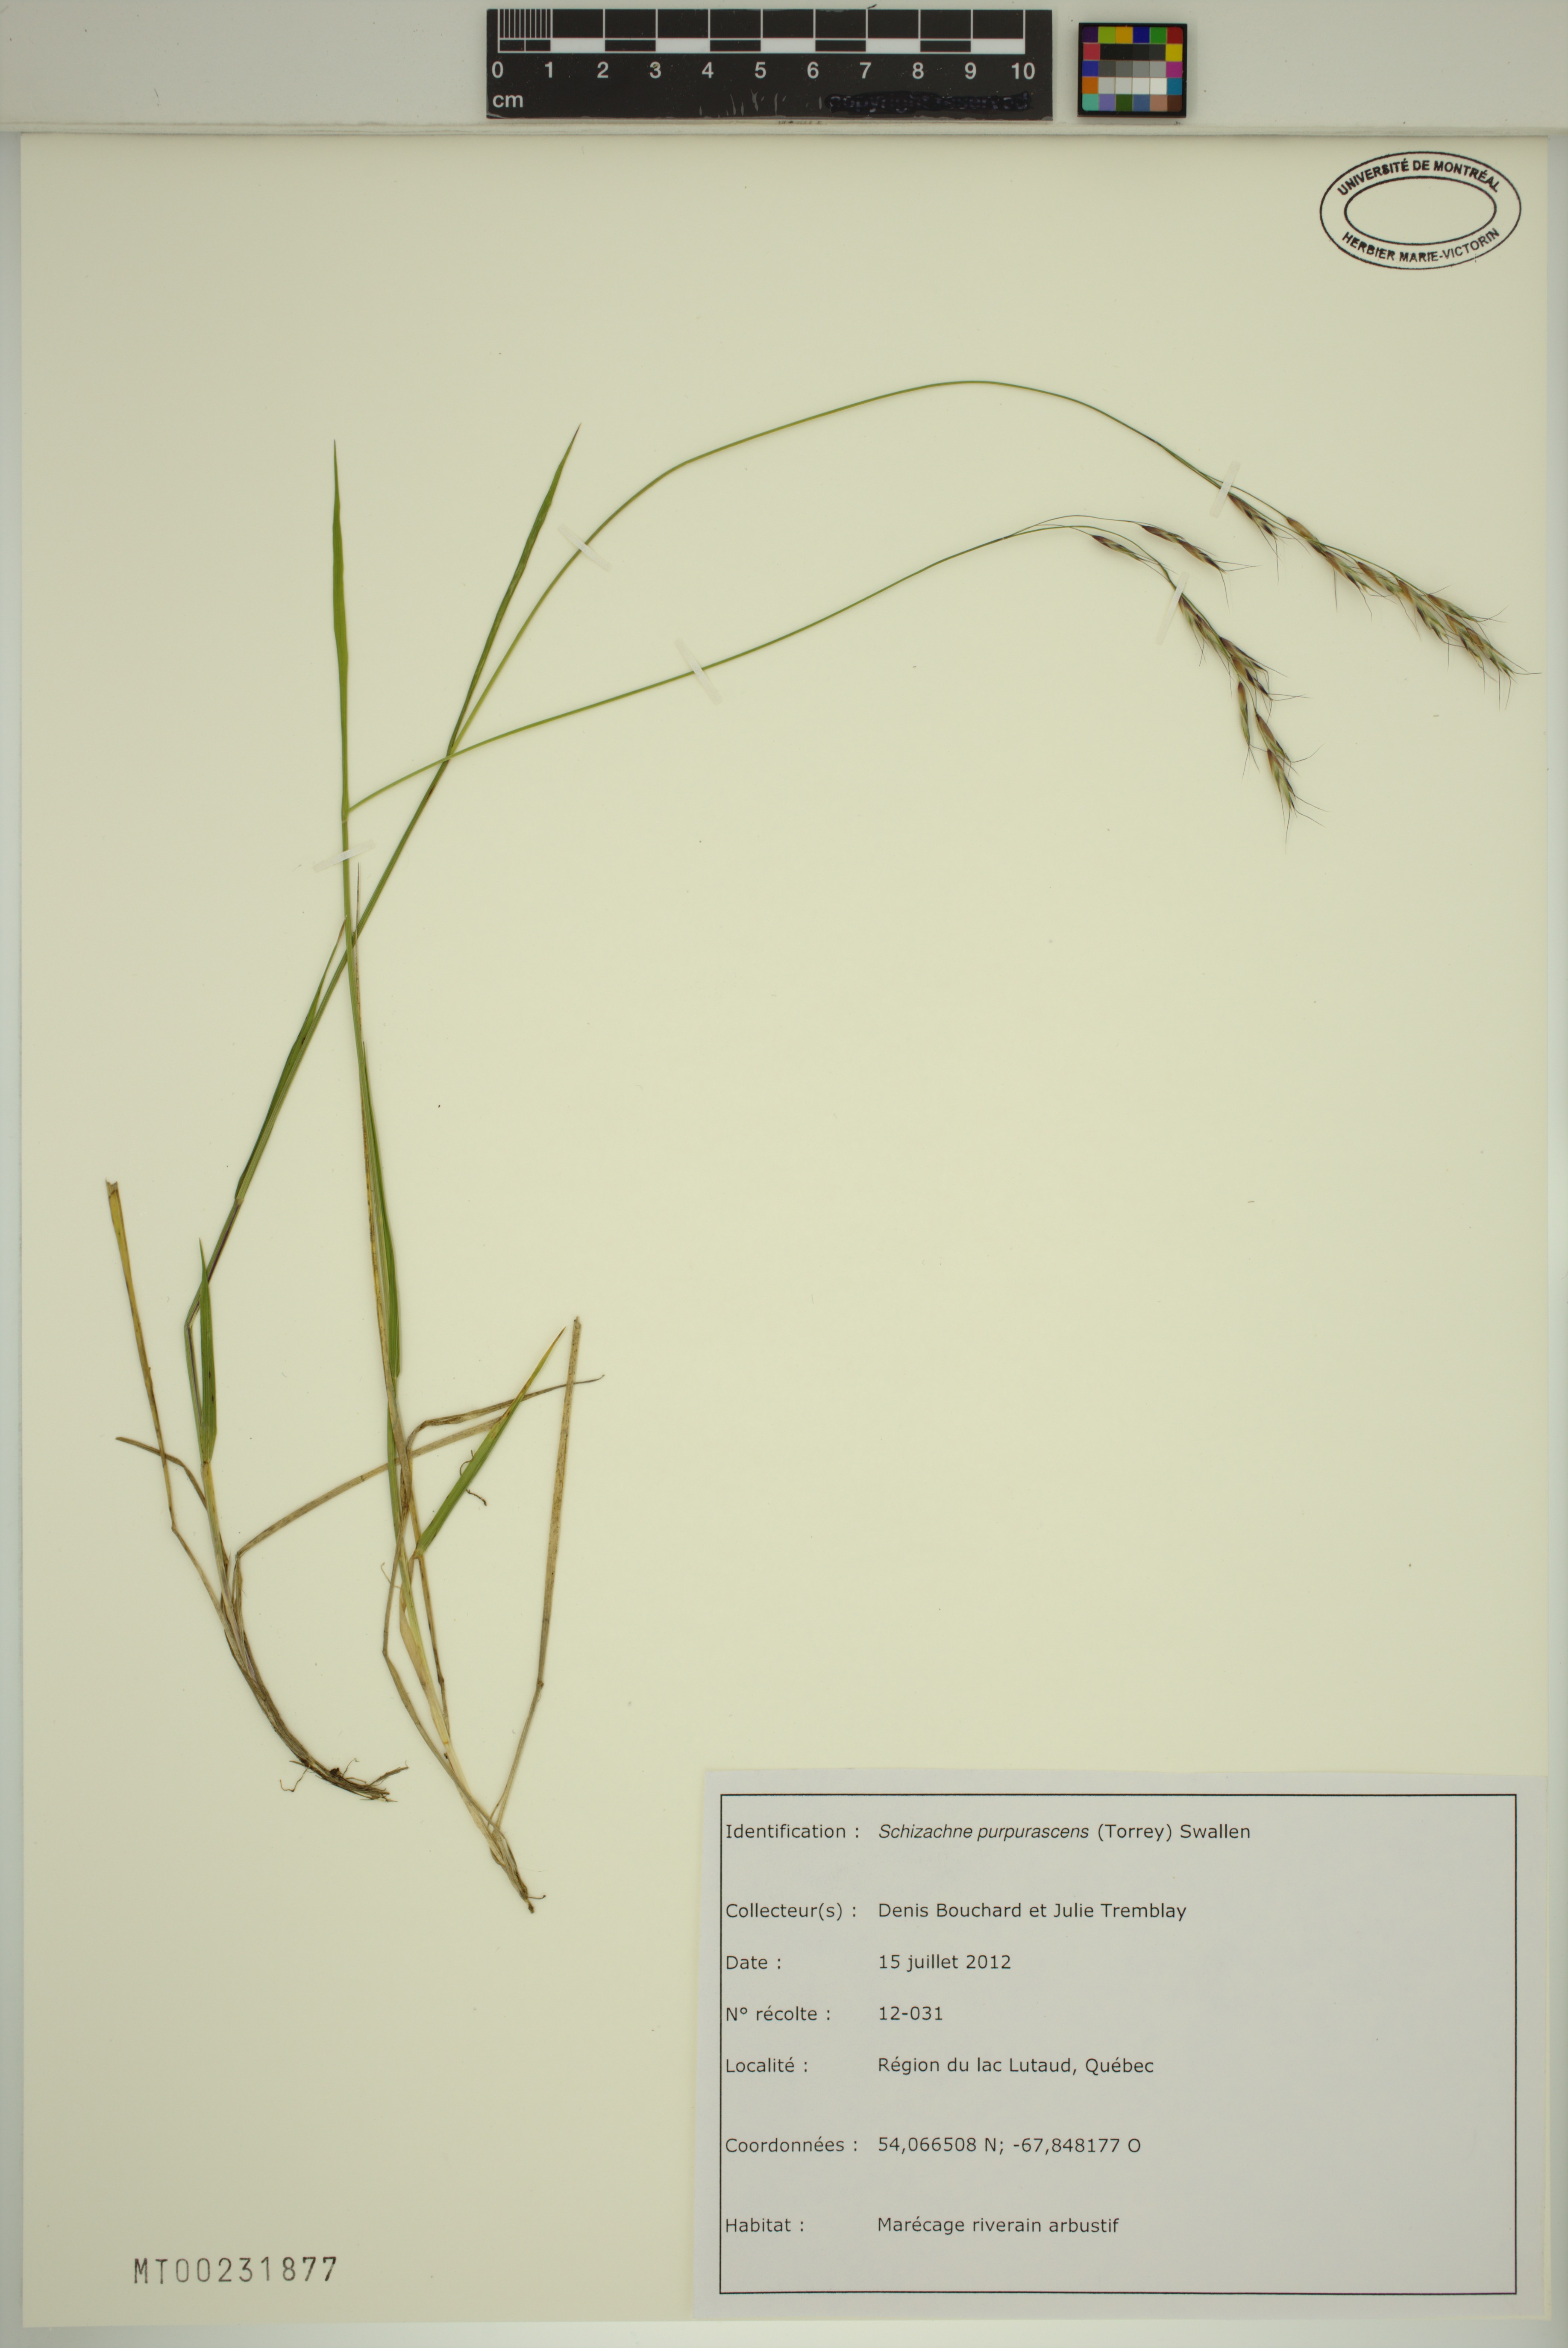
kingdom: Plantae
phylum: Tracheophyta
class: Liliopsida
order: Poales
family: Poaceae
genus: Schizachne
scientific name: Schizachne purpurascens
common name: False melic
